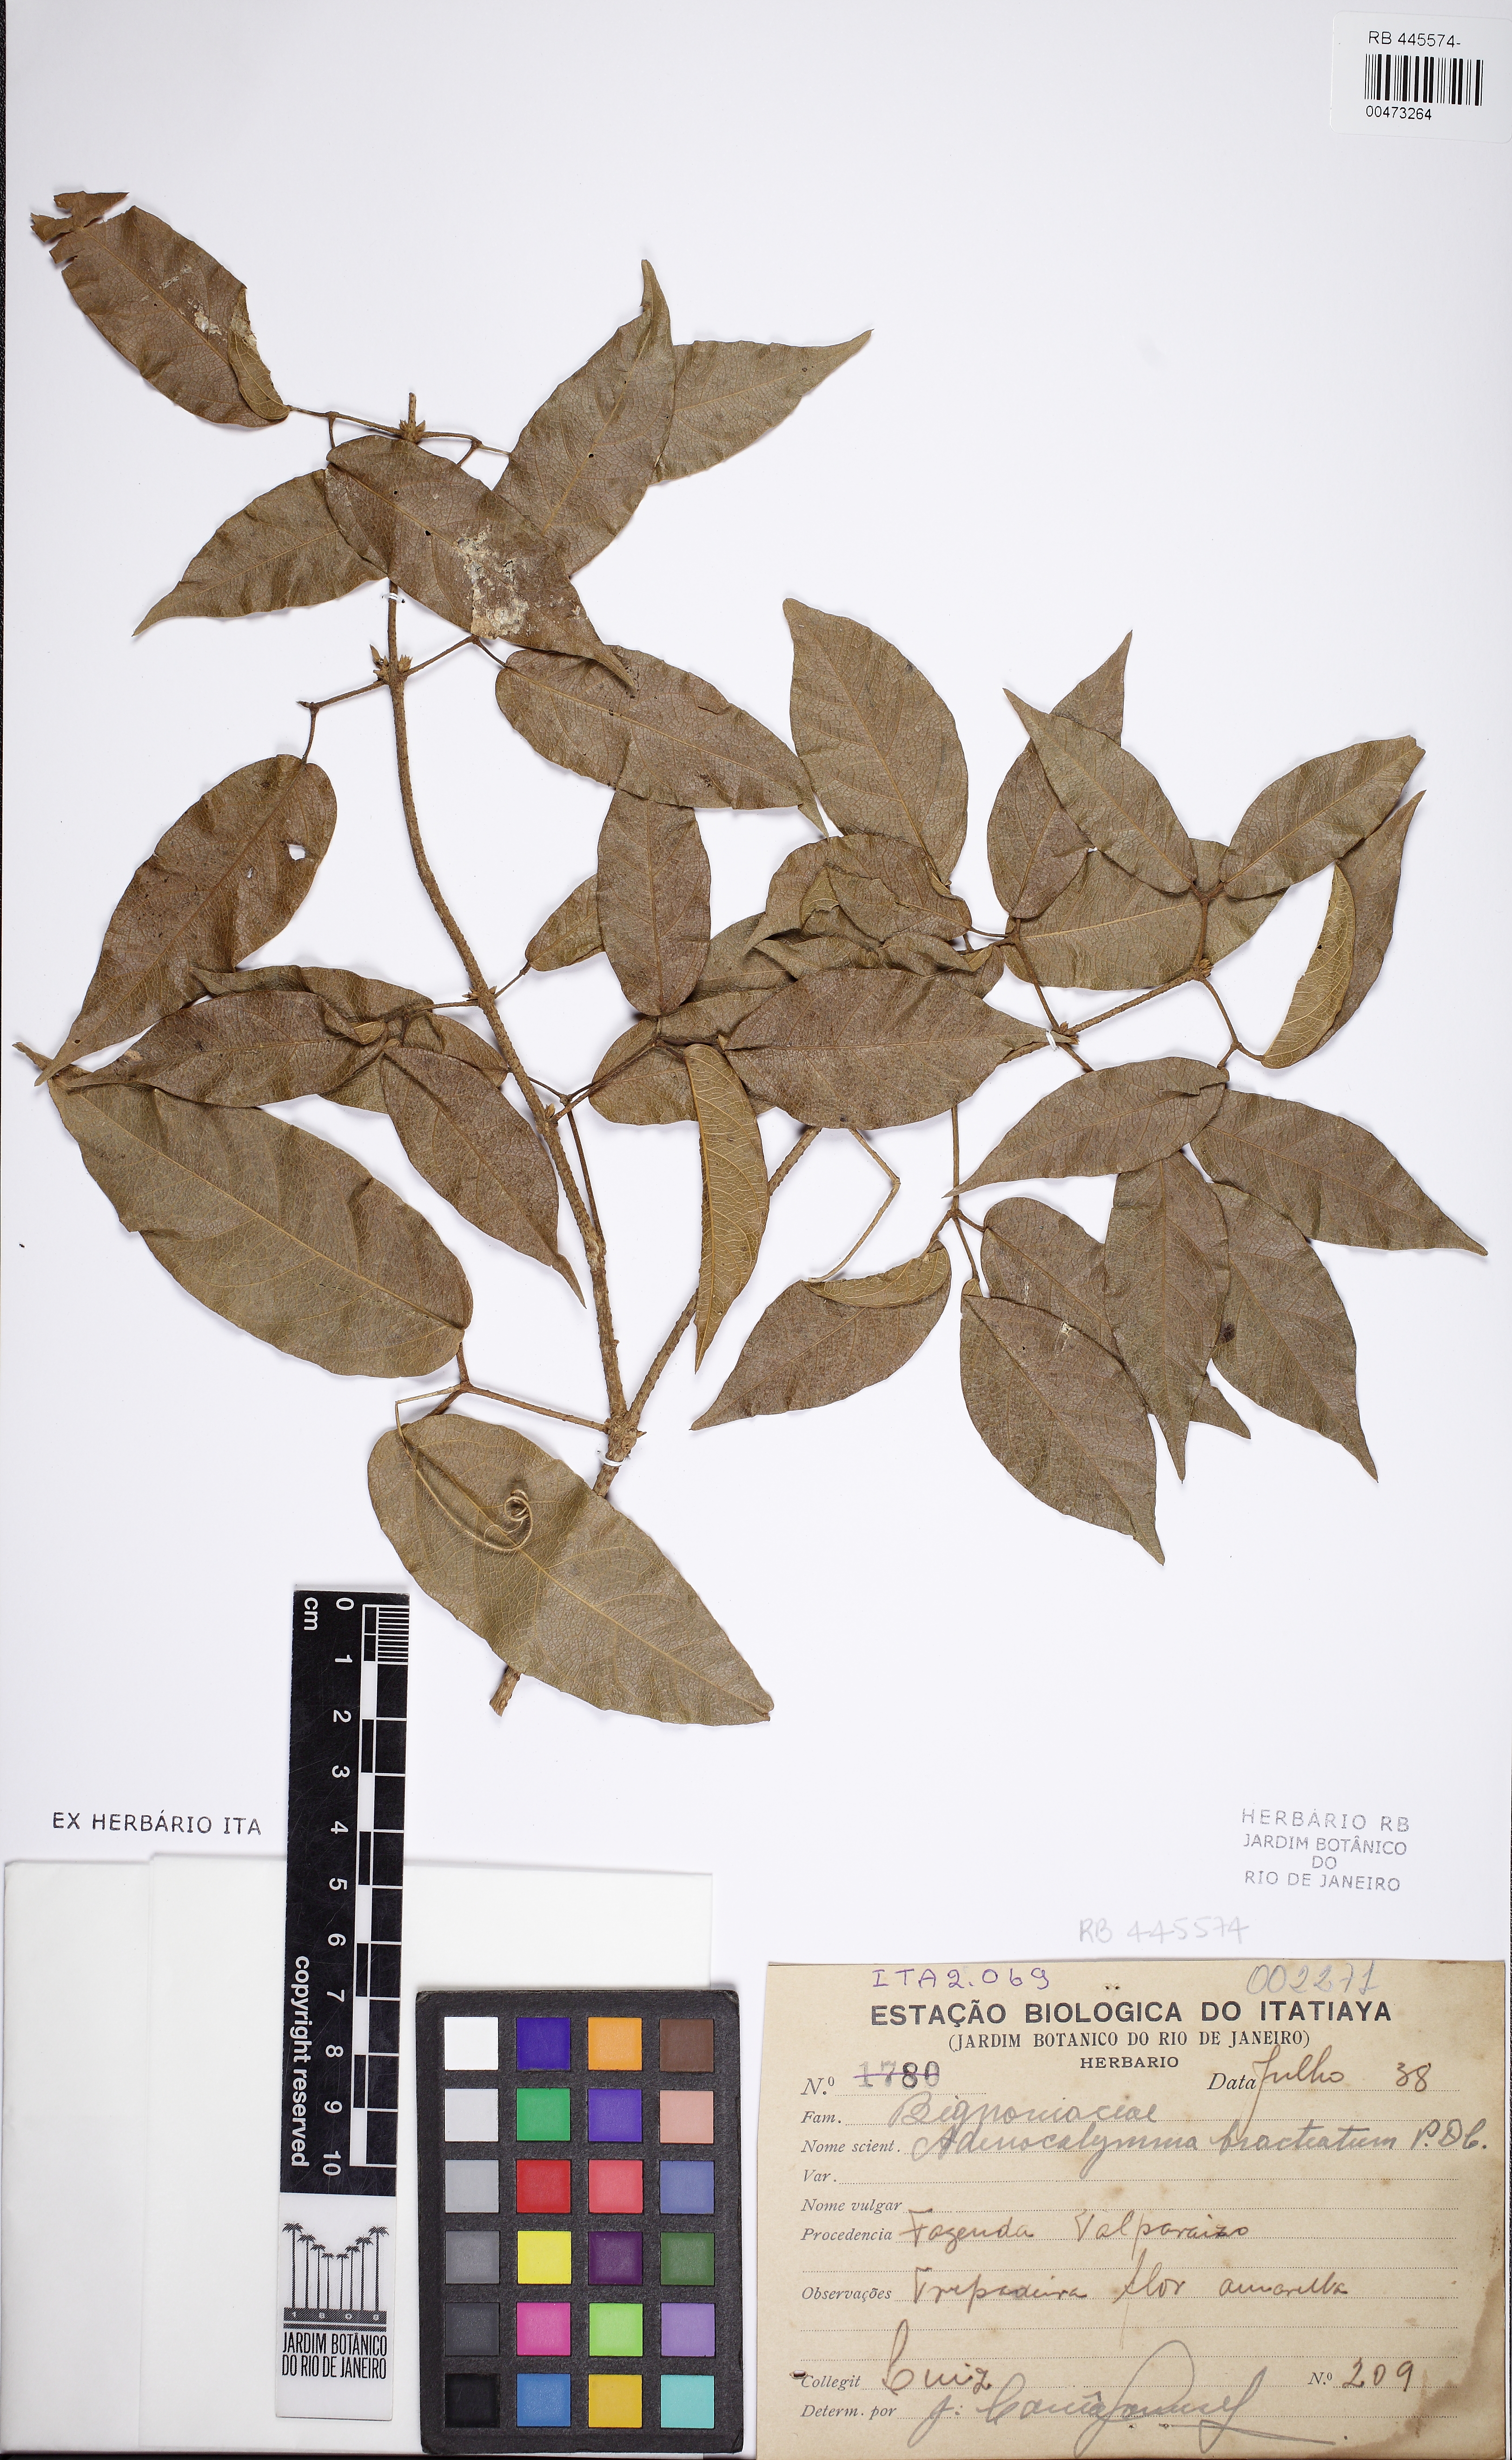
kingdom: Plantae
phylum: Tracheophyta
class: Magnoliopsida
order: Lamiales
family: Bignoniaceae
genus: Adenocalymma
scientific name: Adenocalymma bracteatum
